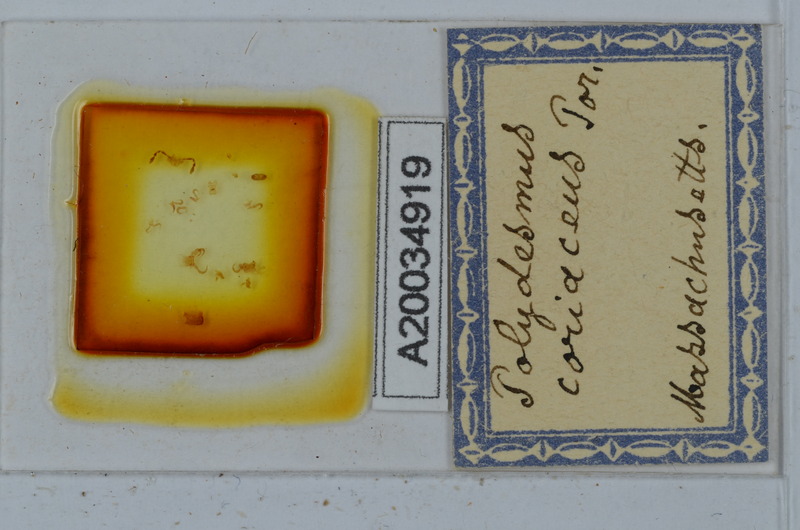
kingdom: Animalia
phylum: Arthropoda
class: Diplopoda
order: Polydesmida
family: Polydesmidae
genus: Polydesmus
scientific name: Polydesmus coriaceus
